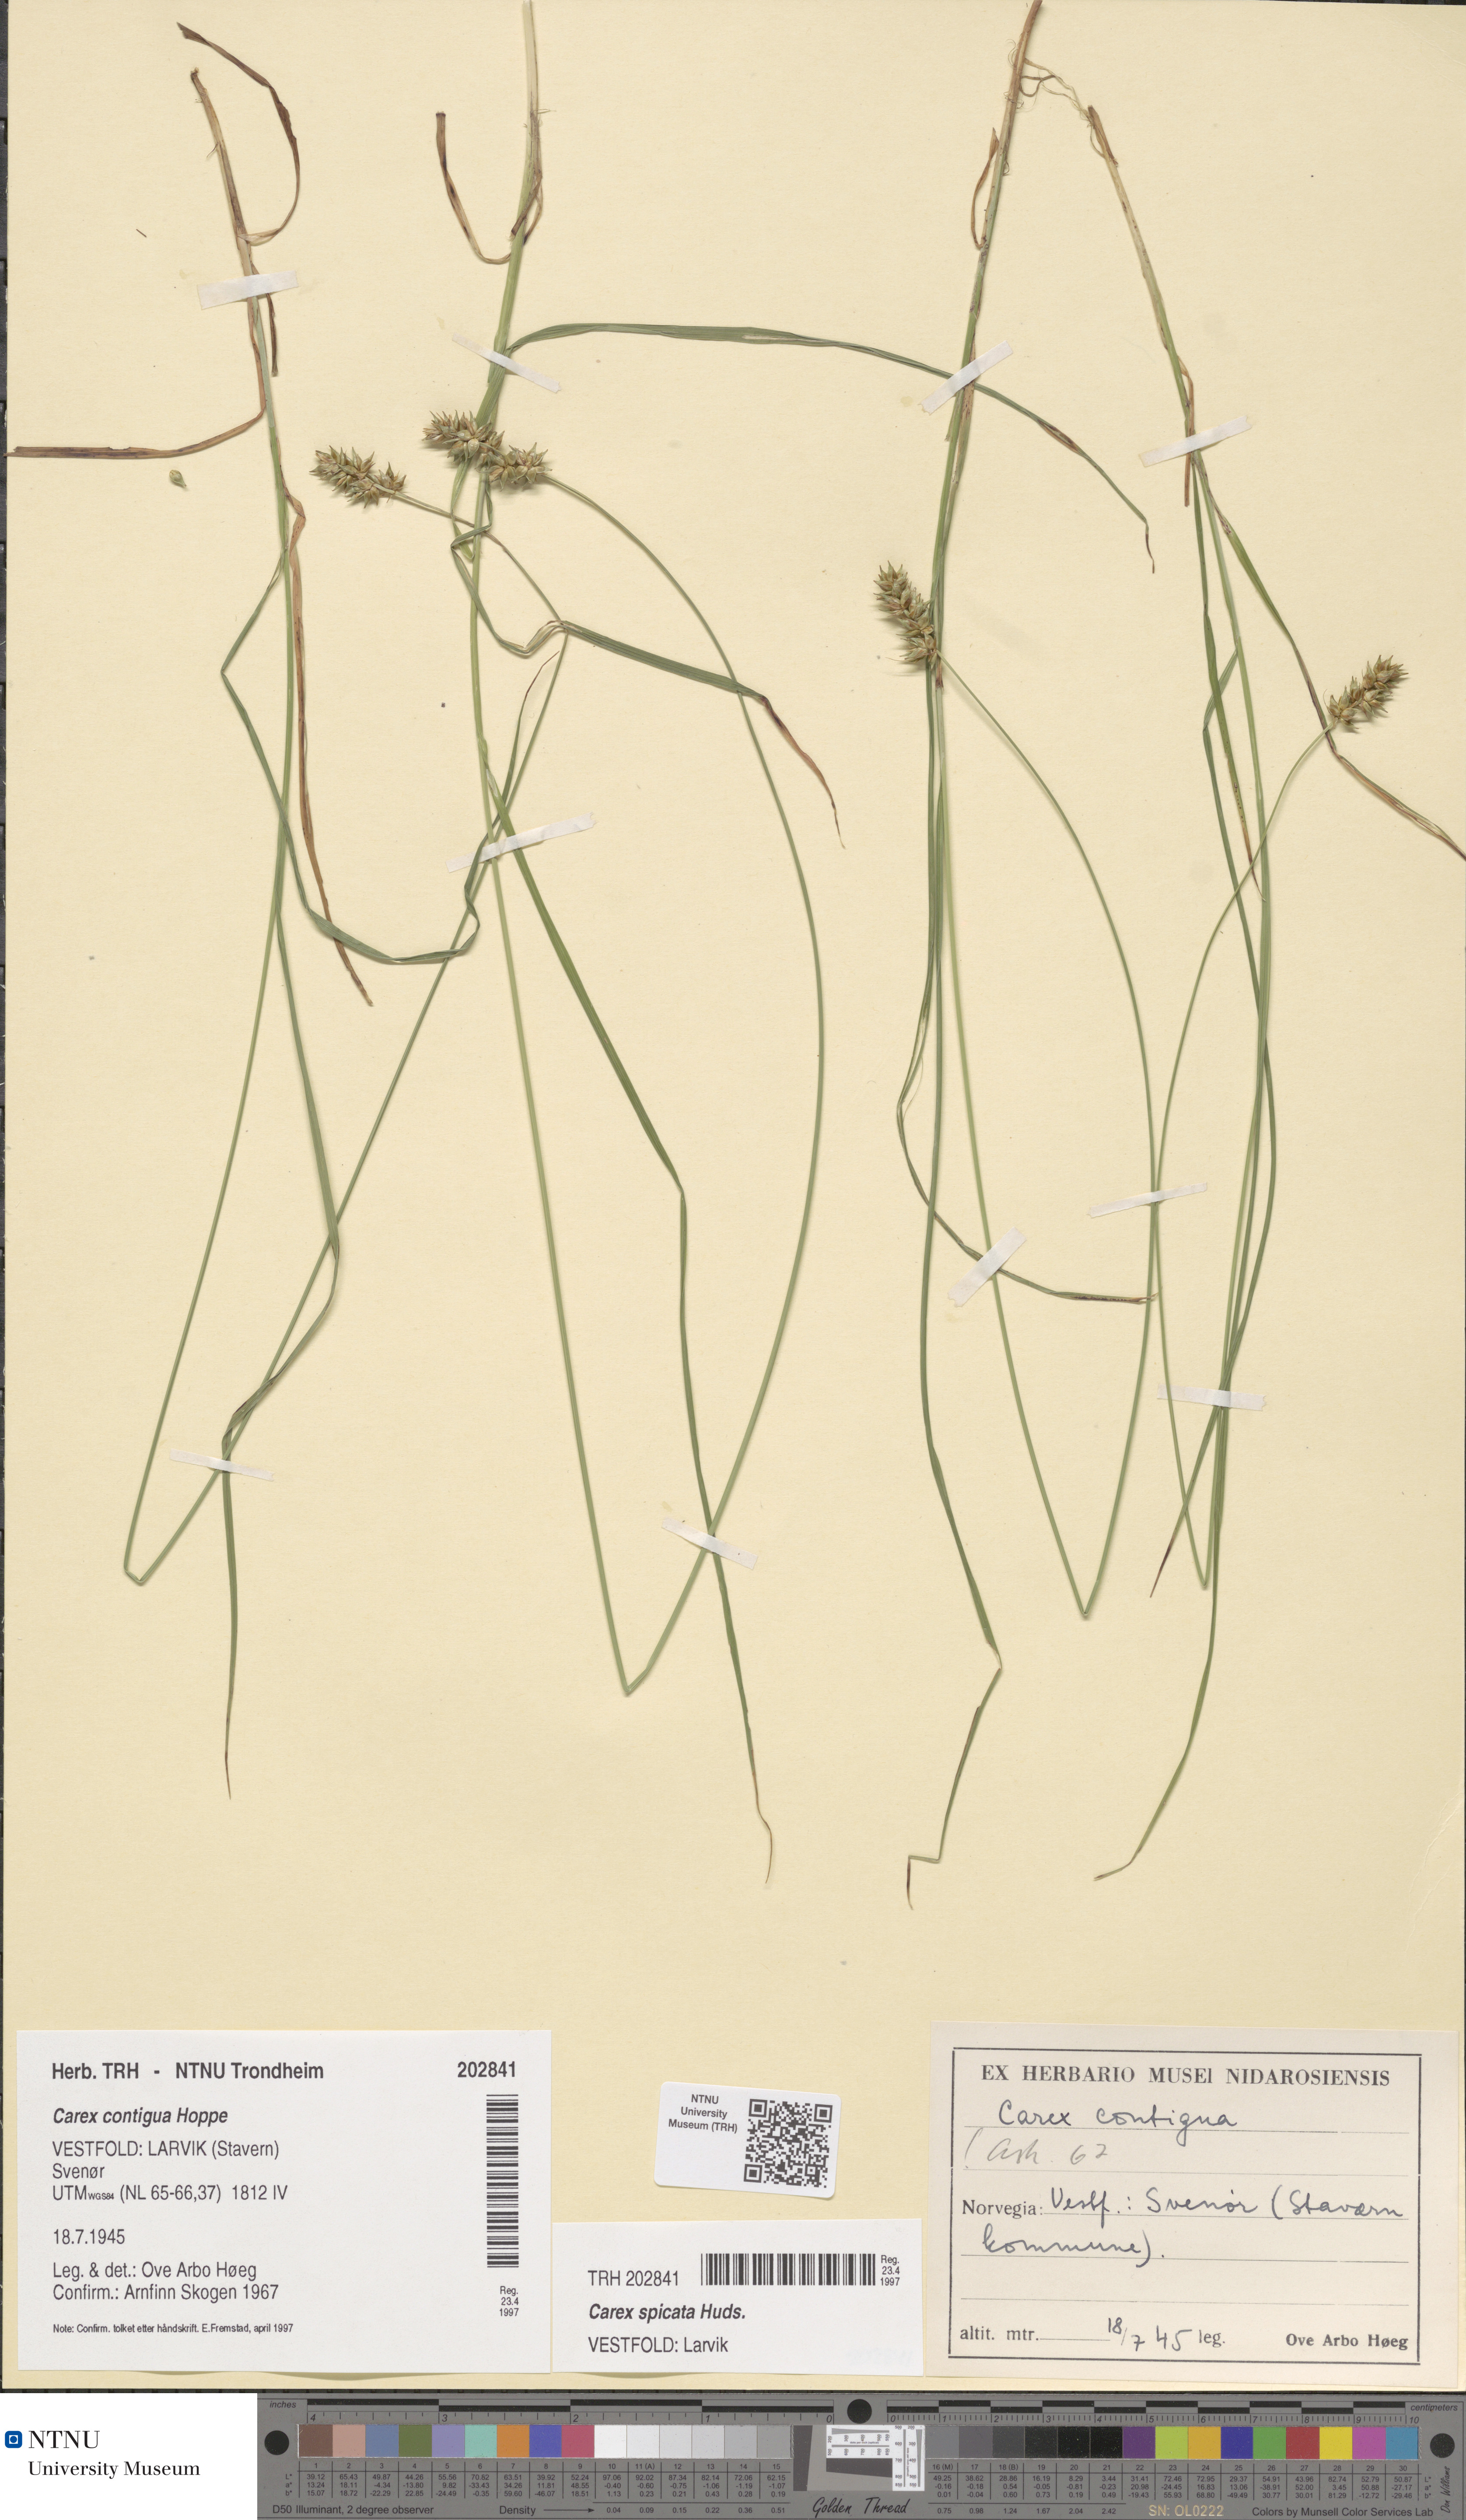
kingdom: Plantae
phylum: Tracheophyta
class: Liliopsida
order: Poales
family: Cyperaceae
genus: Carex
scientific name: Carex spicata
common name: Spiked sedge
